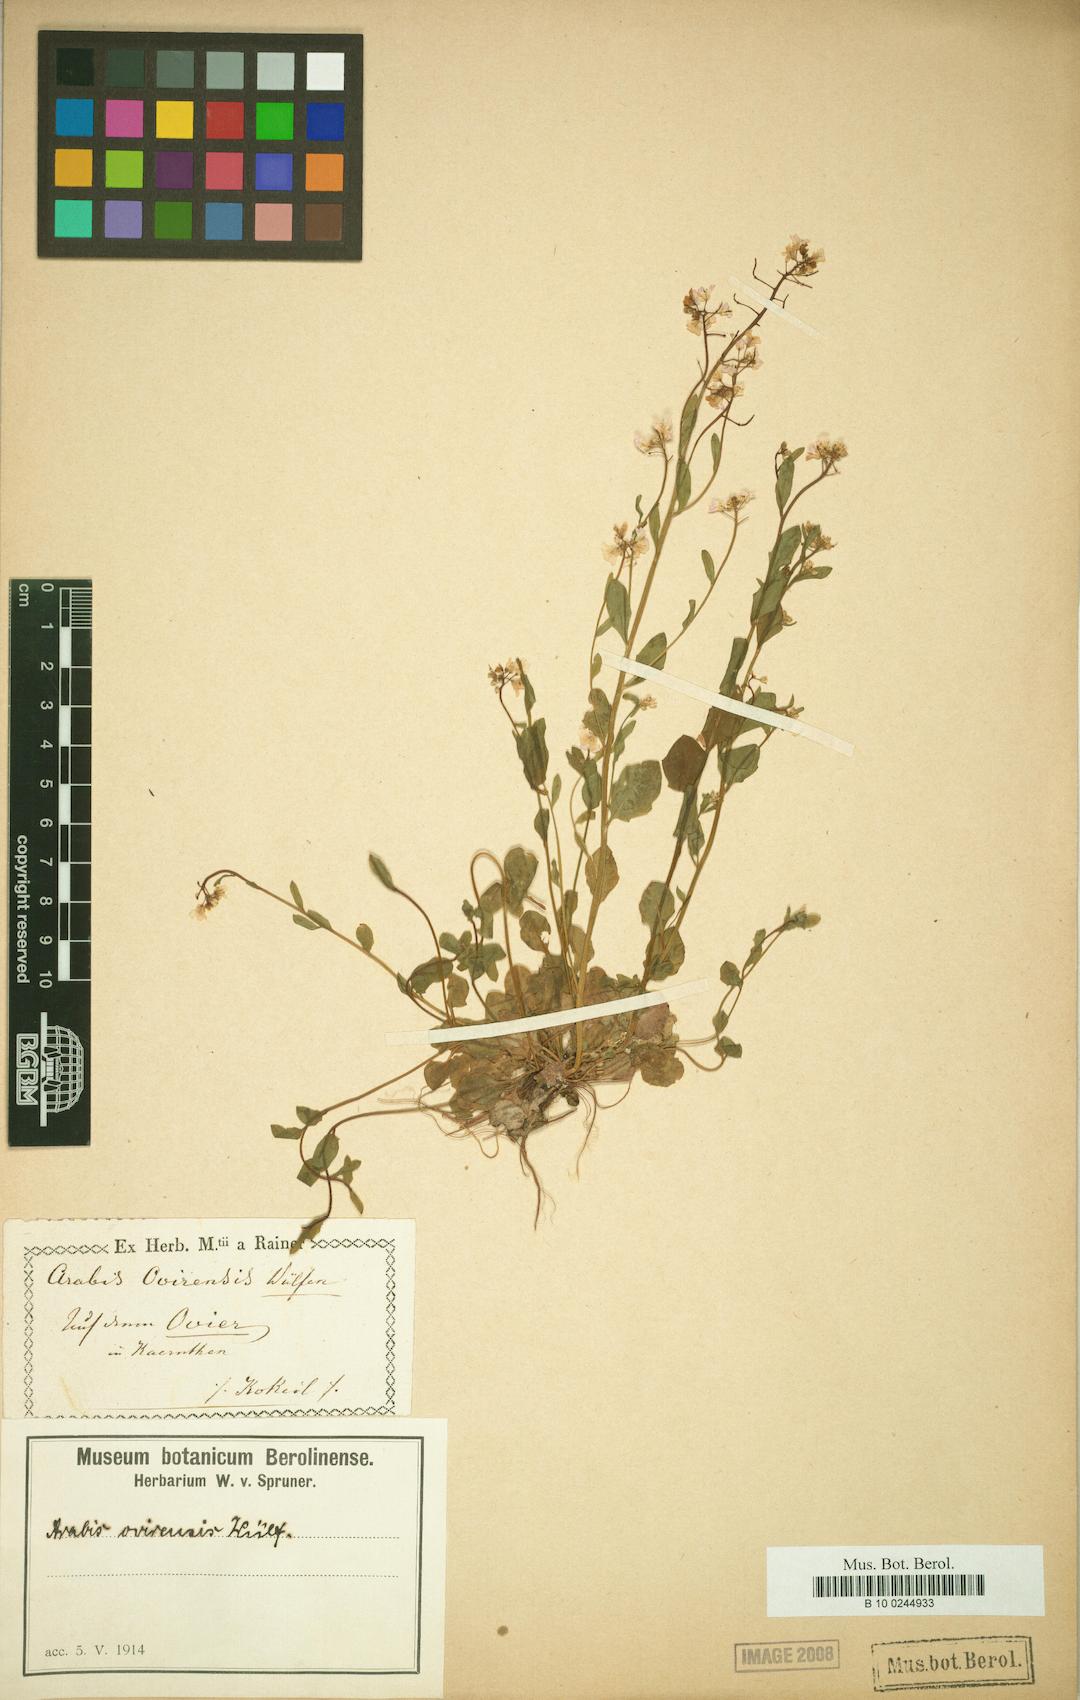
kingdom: Plantae
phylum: Tracheophyta
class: Magnoliopsida
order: Brassicales
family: Brassicaceae
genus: Arabidopsis
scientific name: Arabidopsis halleri
